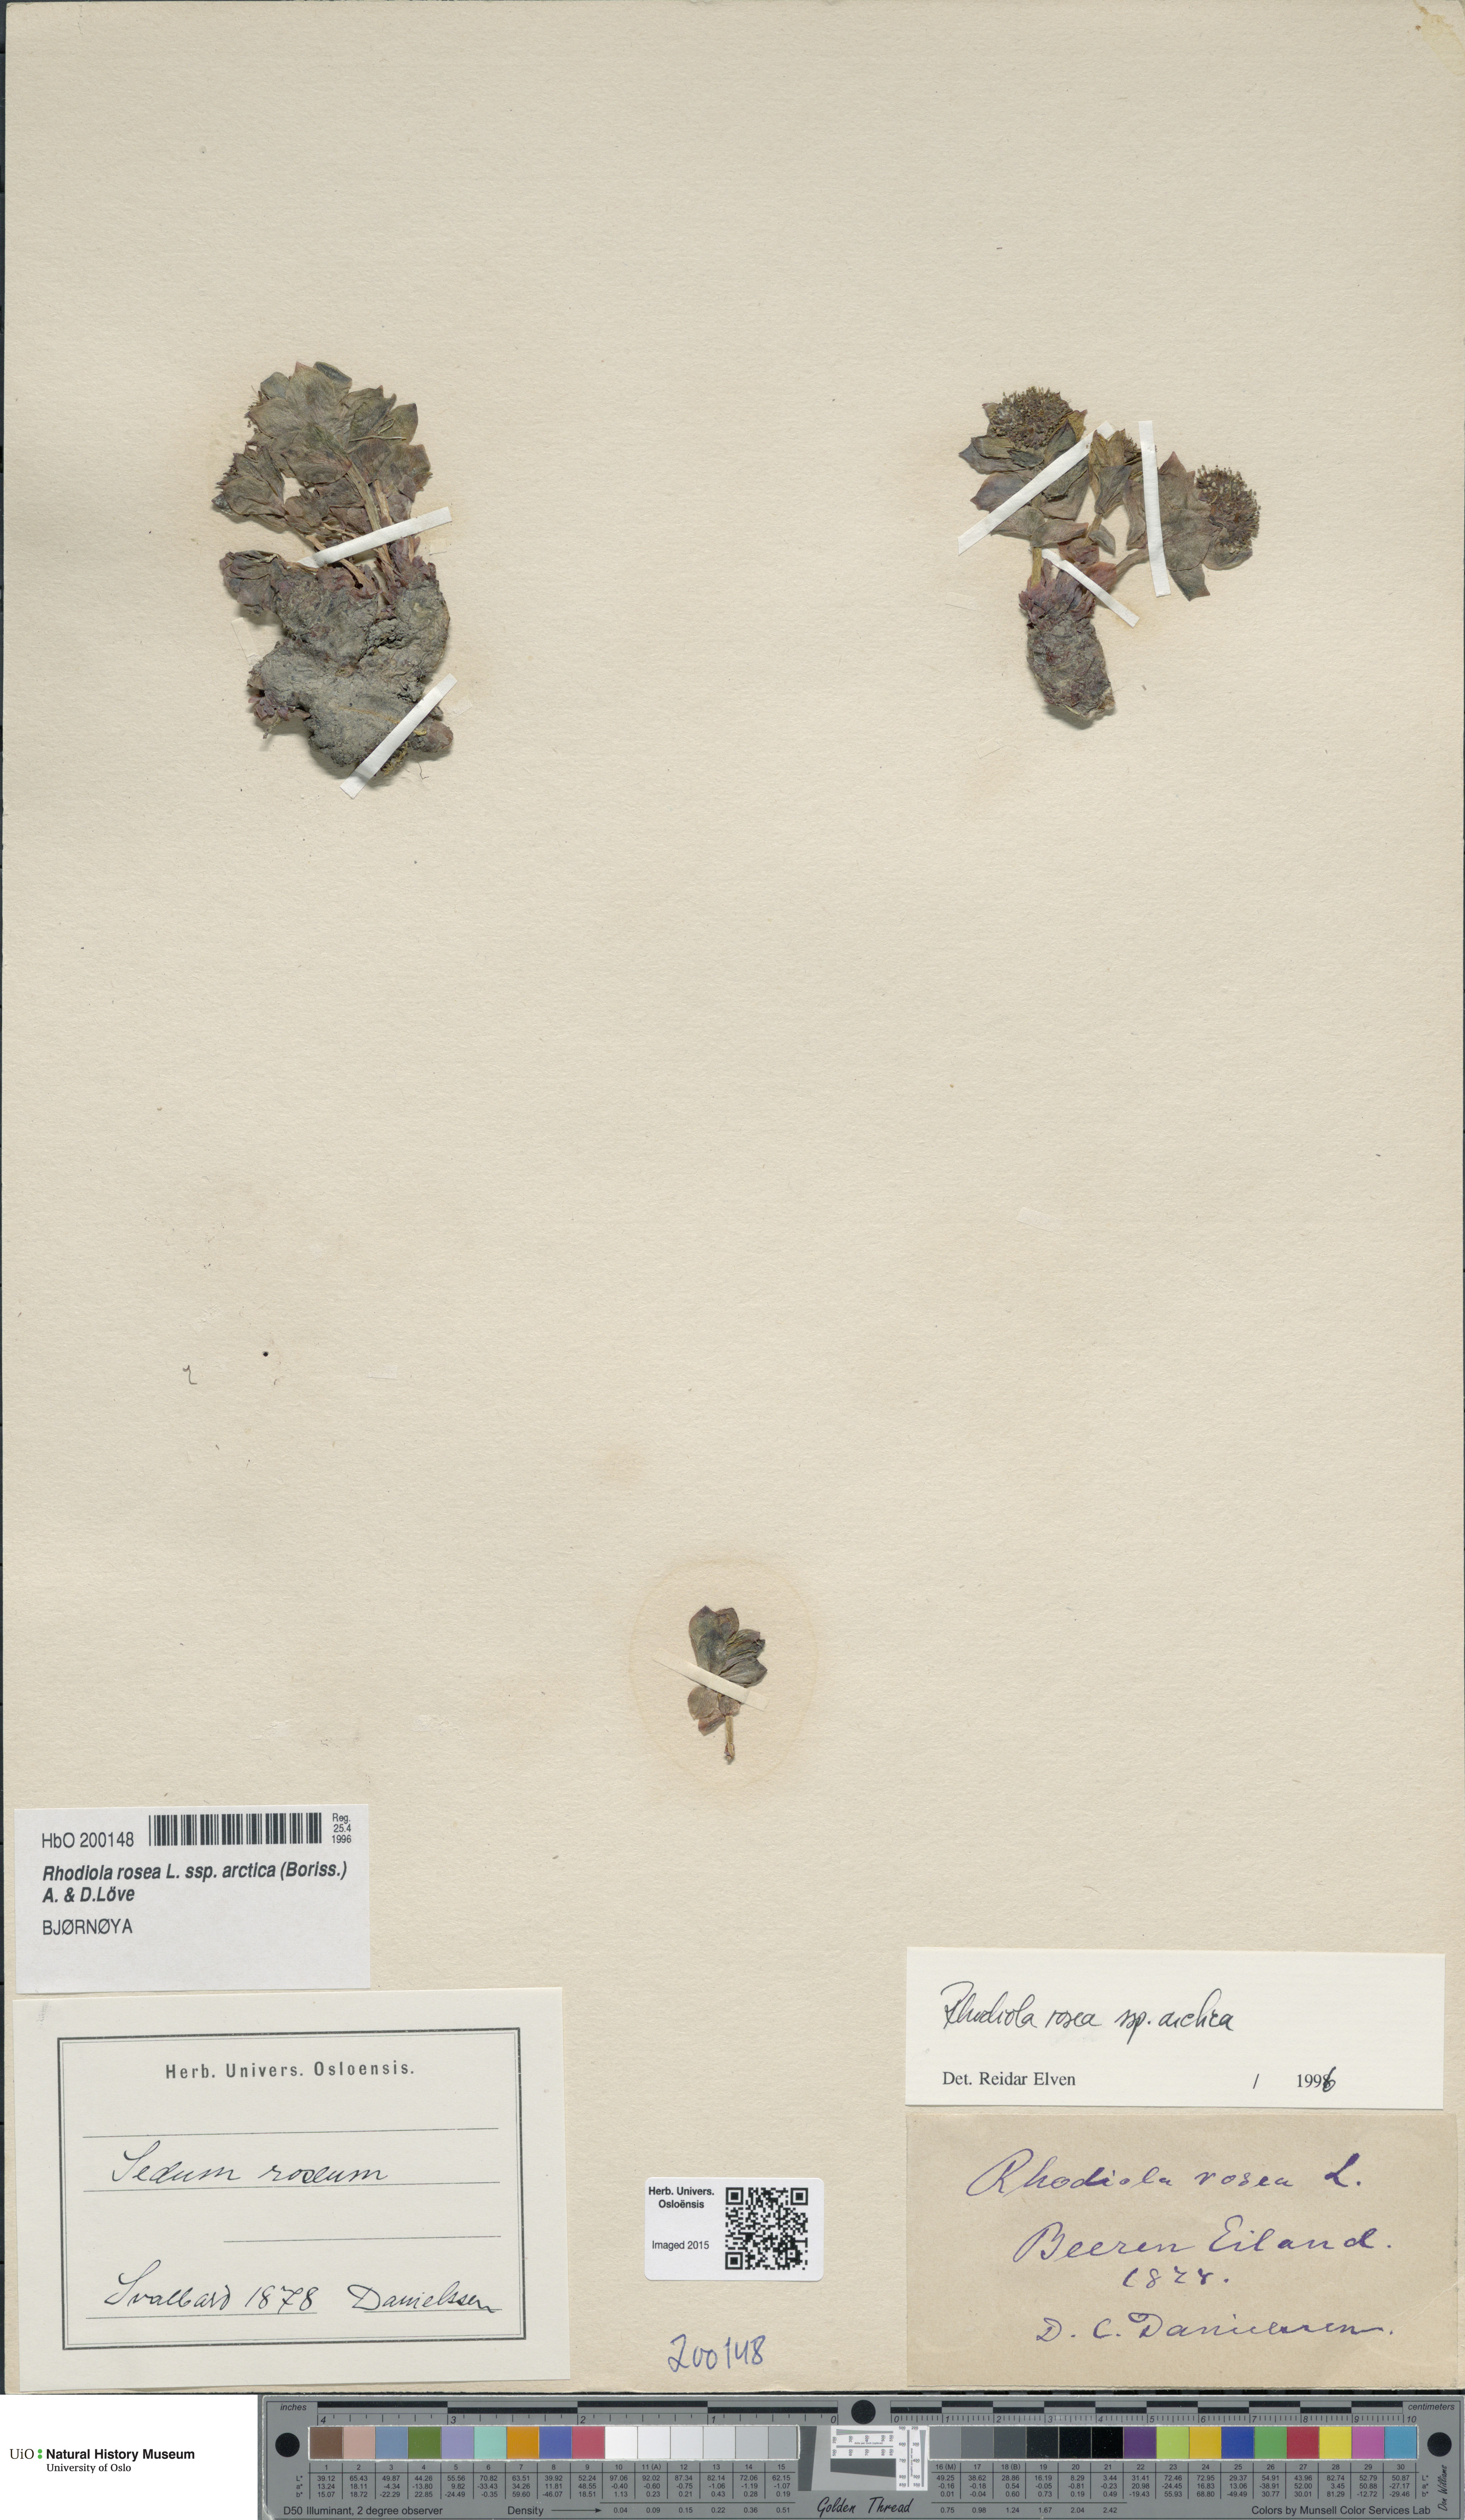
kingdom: Plantae
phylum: Tracheophyta
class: Magnoliopsida
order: Saxifragales
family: Crassulaceae
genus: Rhodiola
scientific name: Rhodiola rosea
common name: Roseroot
